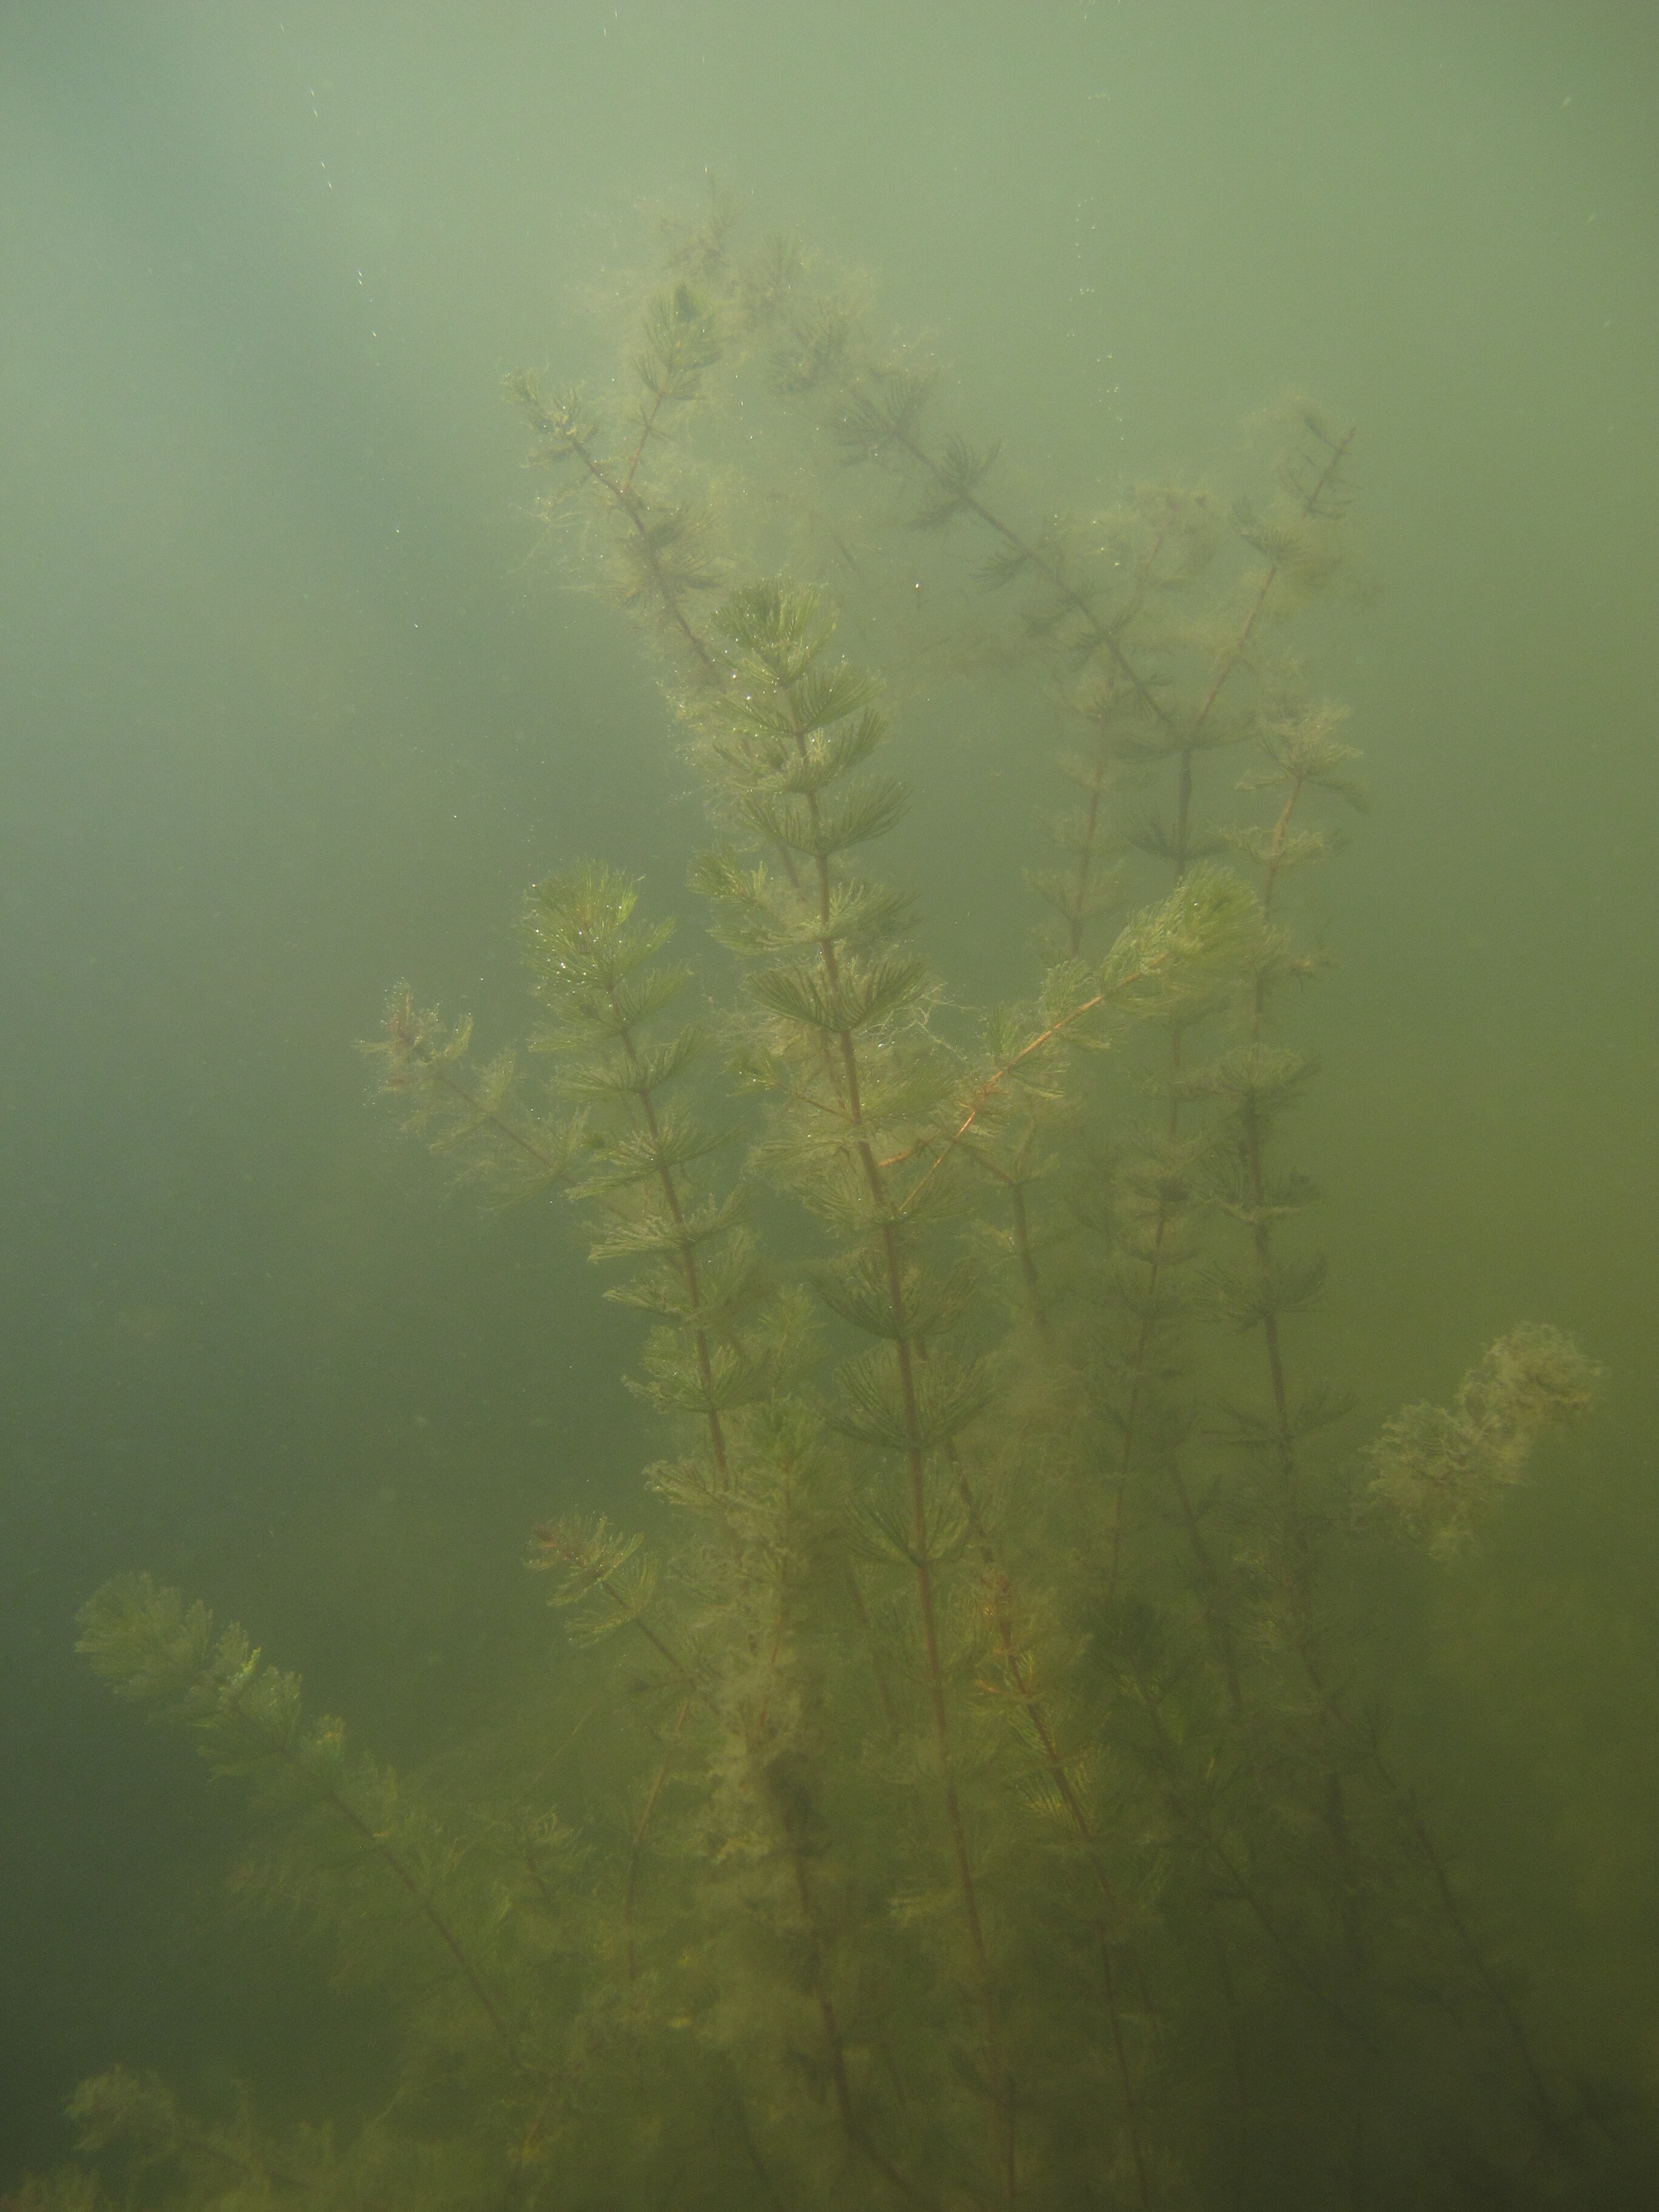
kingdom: Plantae
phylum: Tracheophyta
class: Magnoliopsida
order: Saxifragales
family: Haloragaceae
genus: Myriophyllum
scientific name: Myriophyllum spicatum
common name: Spiked water-milfoil
